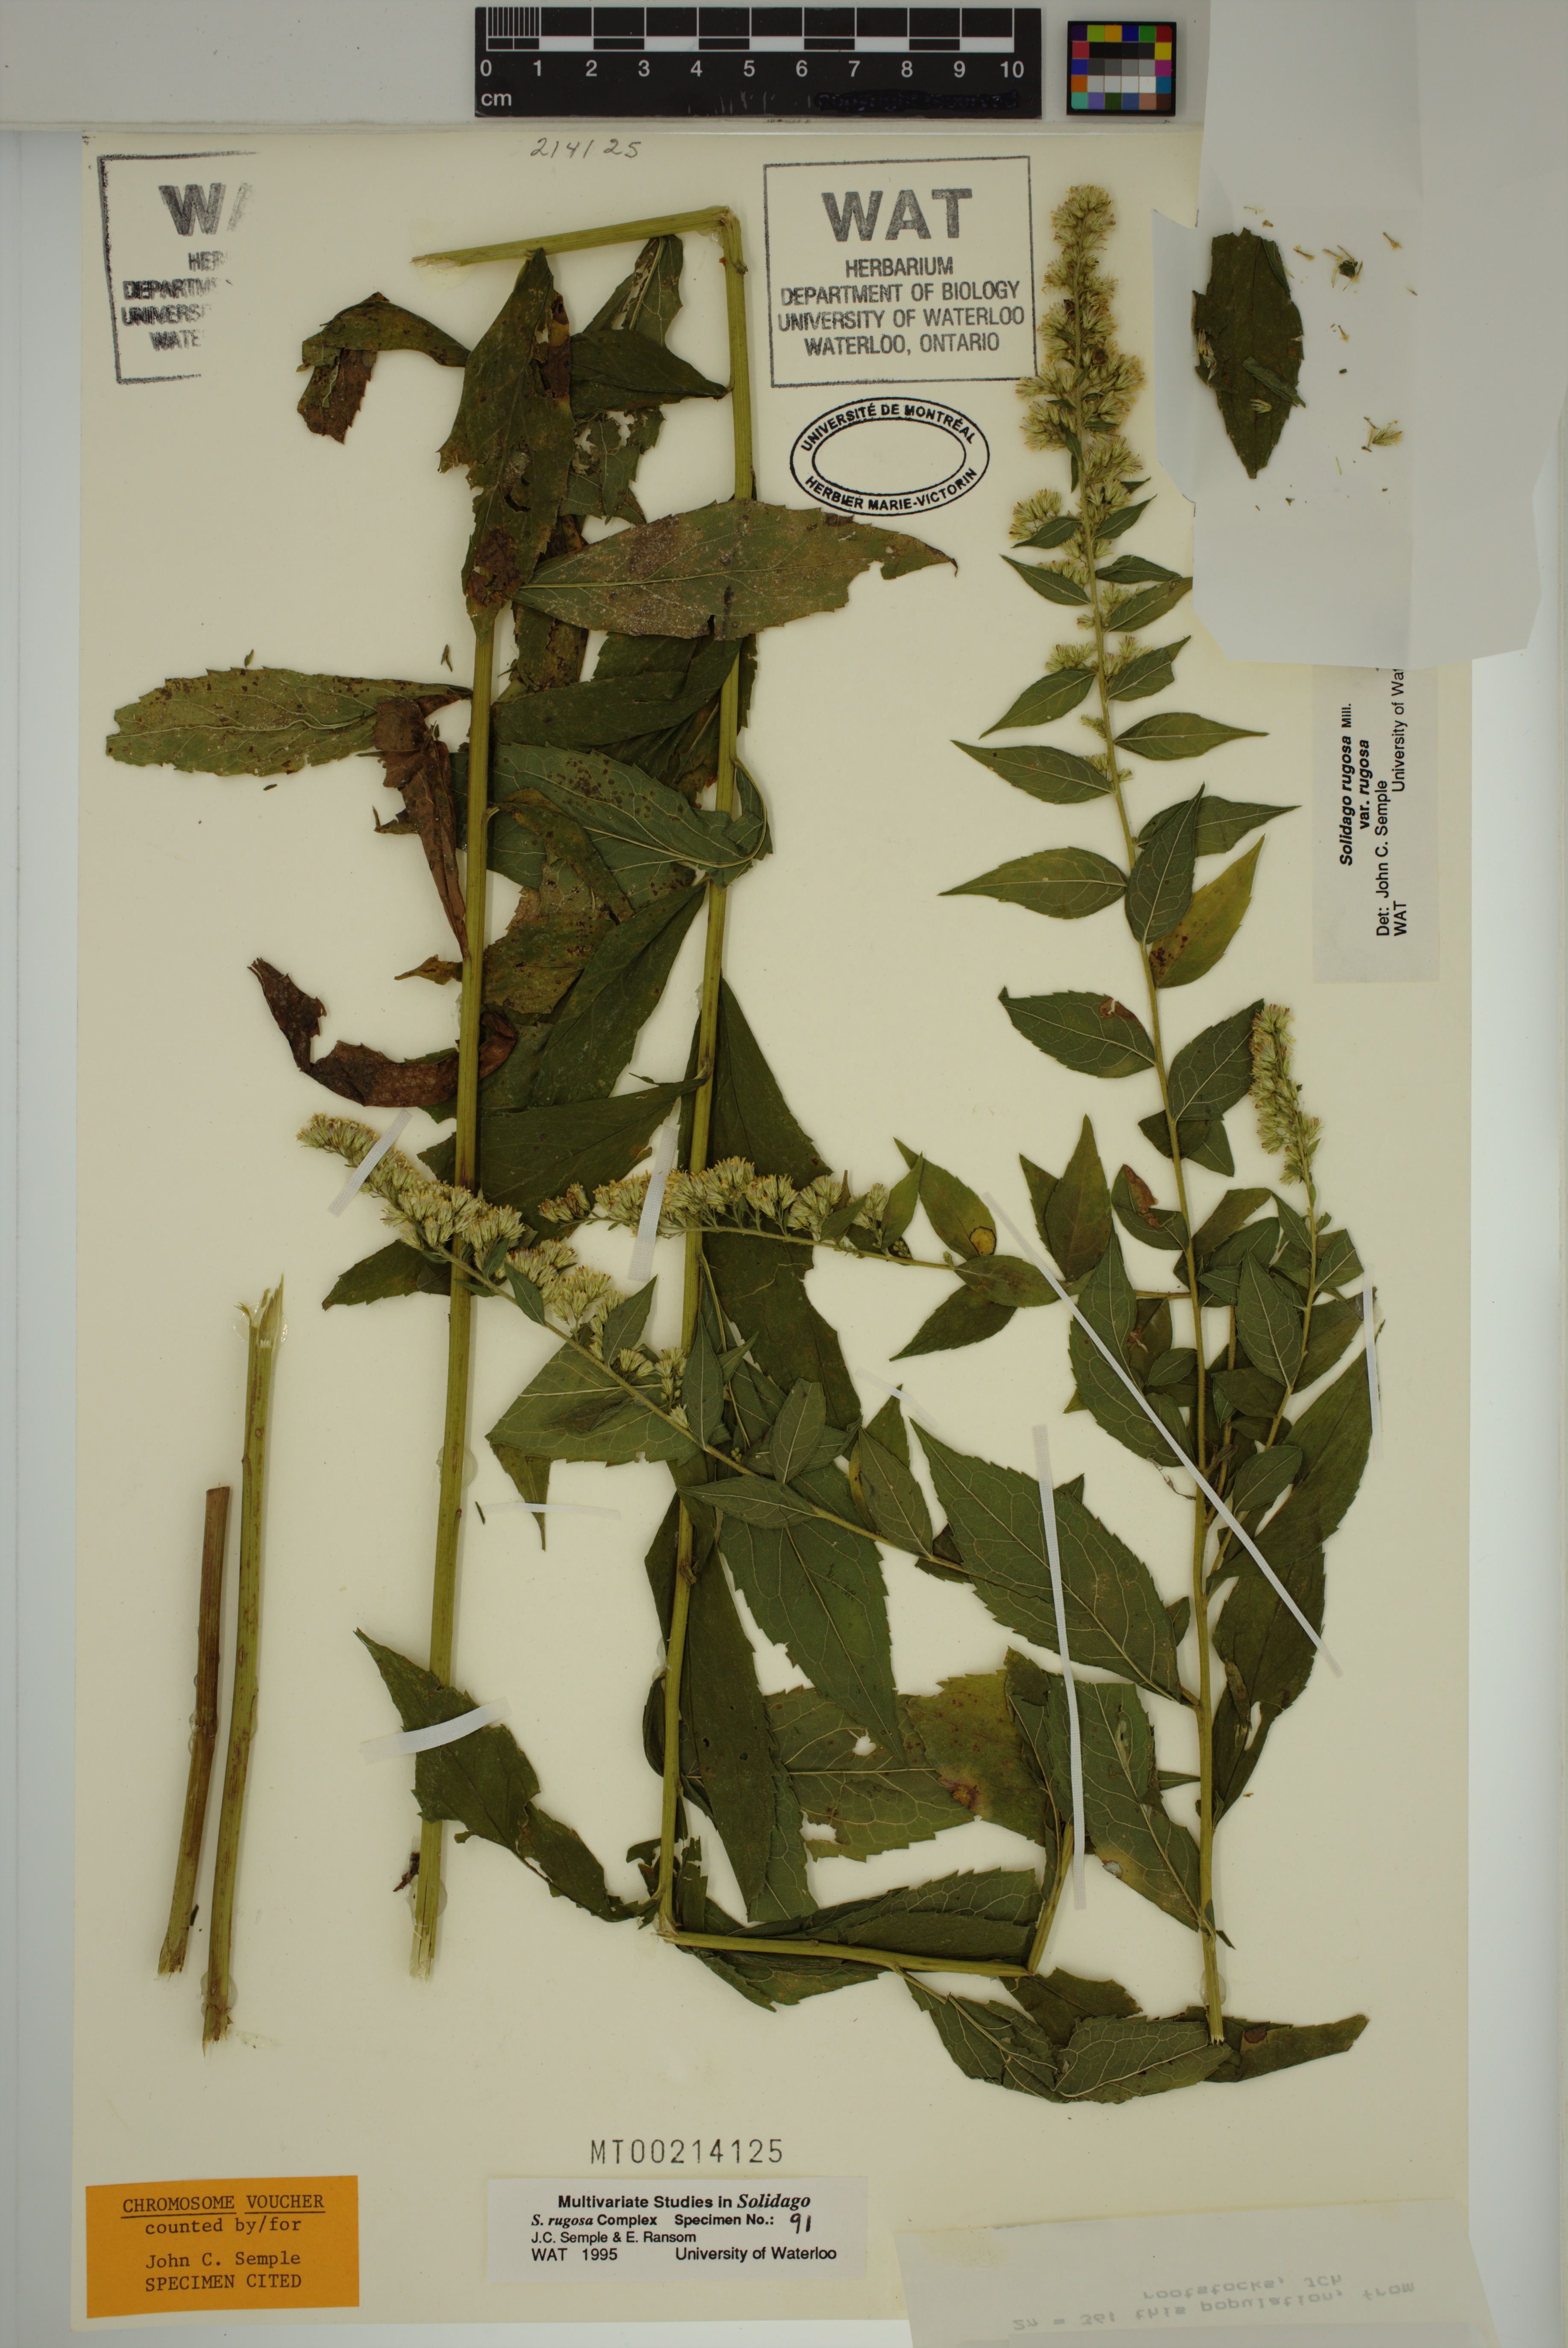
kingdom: Plantae
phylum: Tracheophyta
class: Magnoliopsida
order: Asterales
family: Asteraceae
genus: Solidago
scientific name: Solidago rugosa
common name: Rough-stemmed goldenrod
